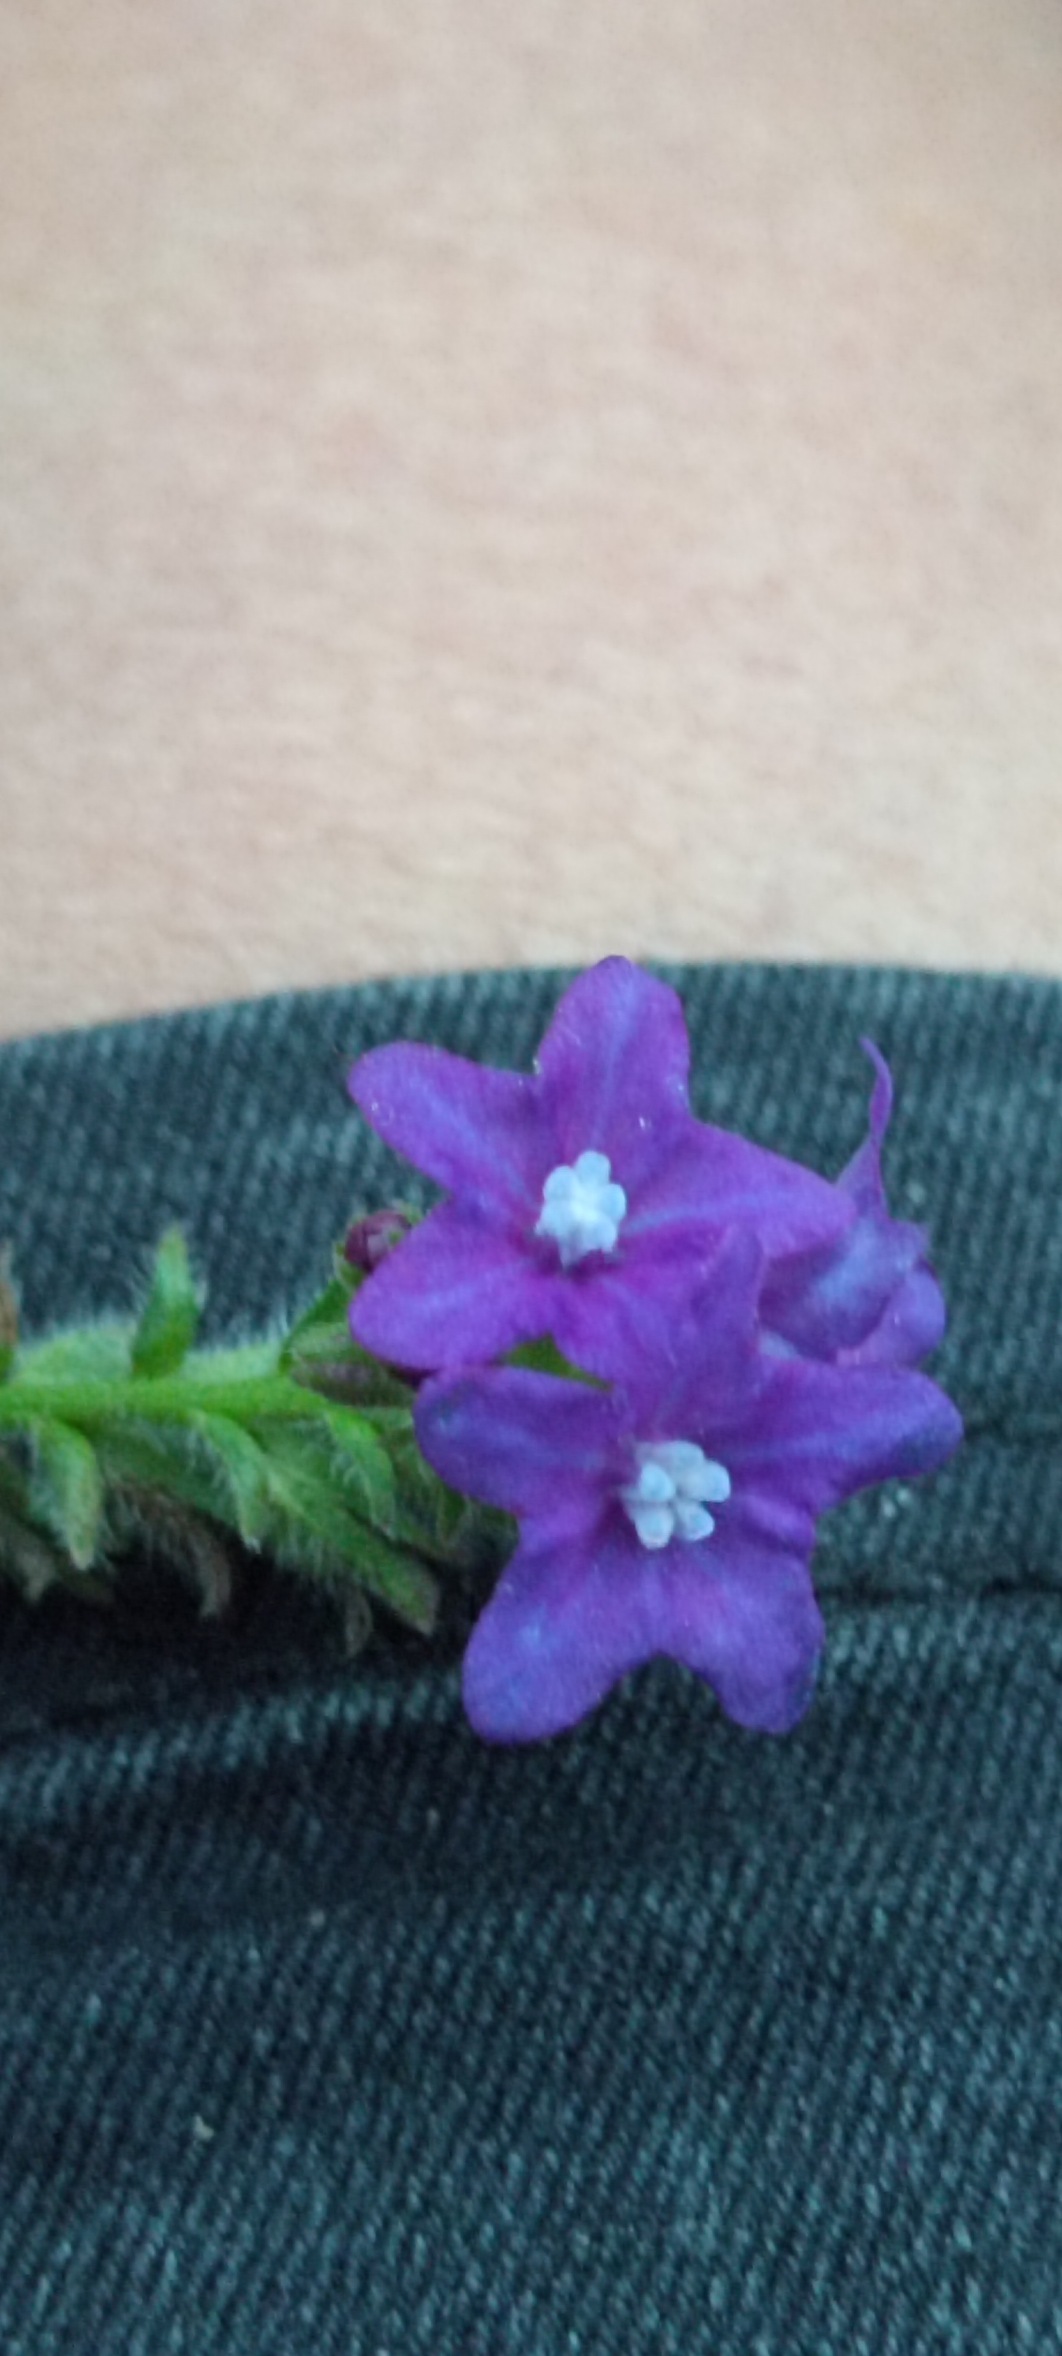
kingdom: Plantae
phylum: Tracheophyta
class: Magnoliopsida
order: Boraginales
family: Boraginaceae
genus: Anchusa
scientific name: Anchusa officinalis
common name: Læge-oksetunge
